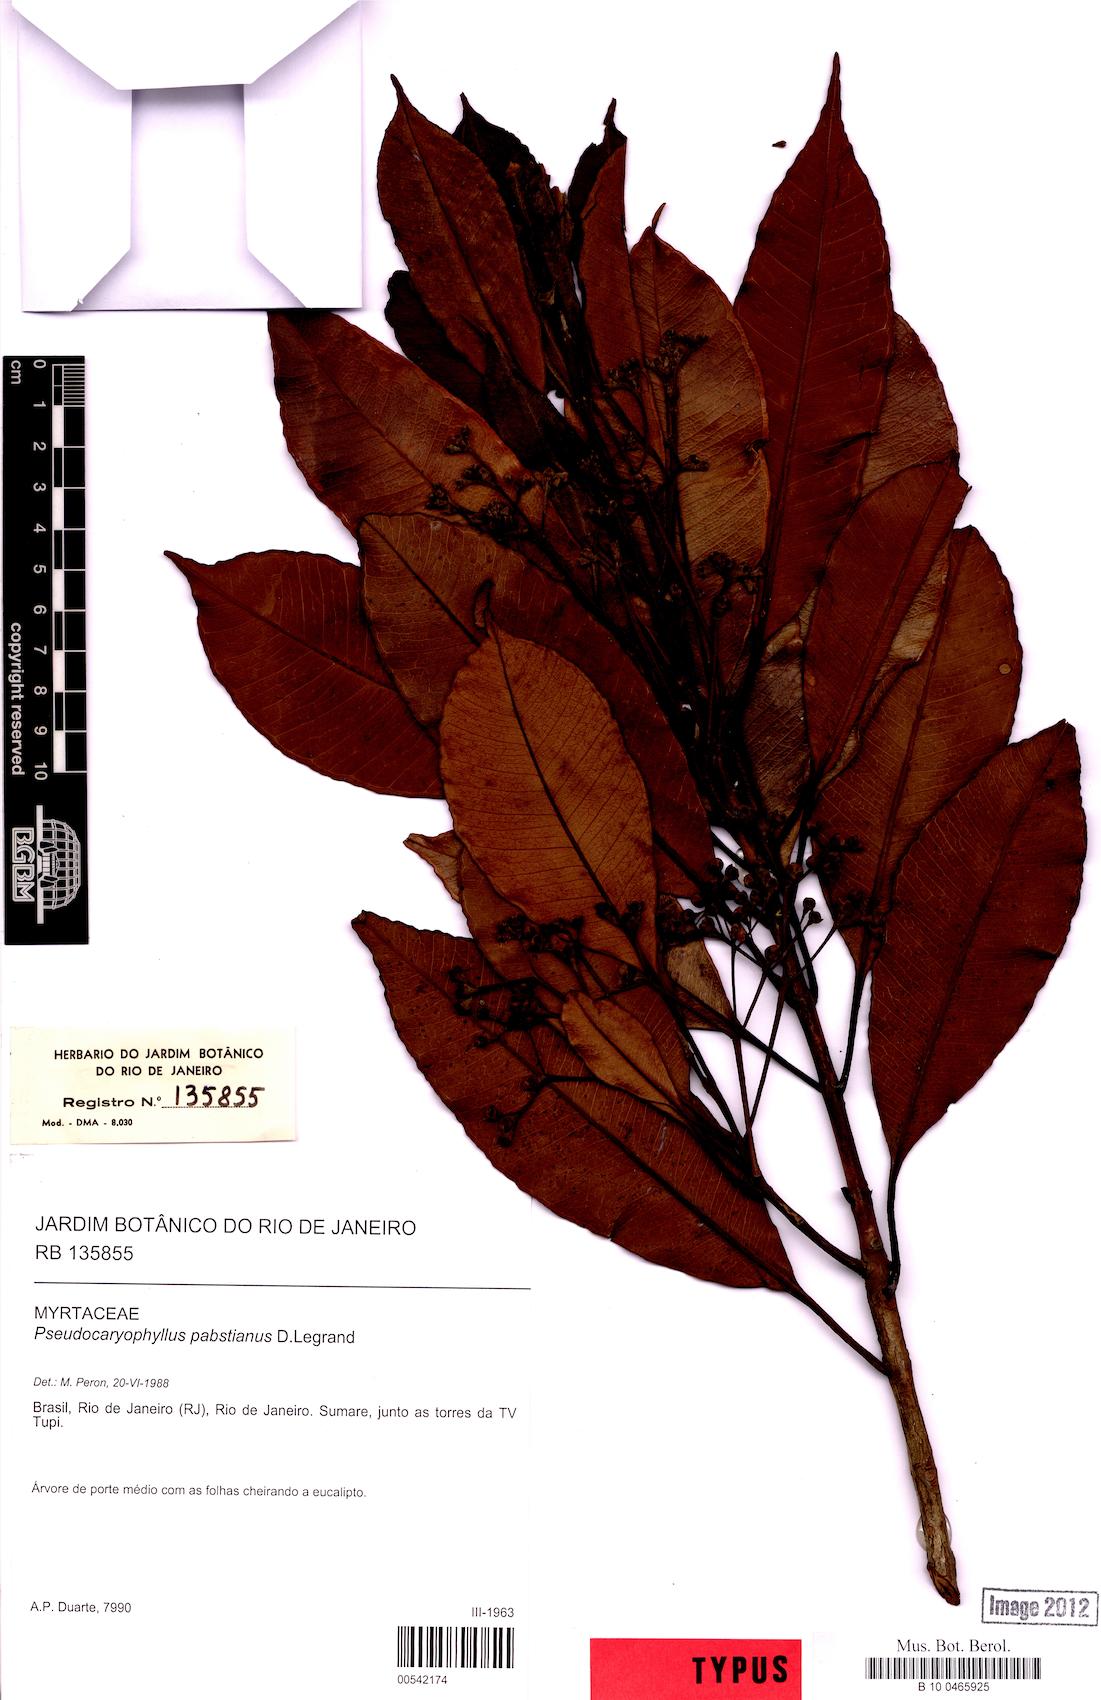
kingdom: Plantae
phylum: Tracheophyta
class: Magnoliopsida
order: Myrtales
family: Myrtaceae
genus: Pimenta
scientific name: Pimenta Pseudocaryophyllus pabstianus
